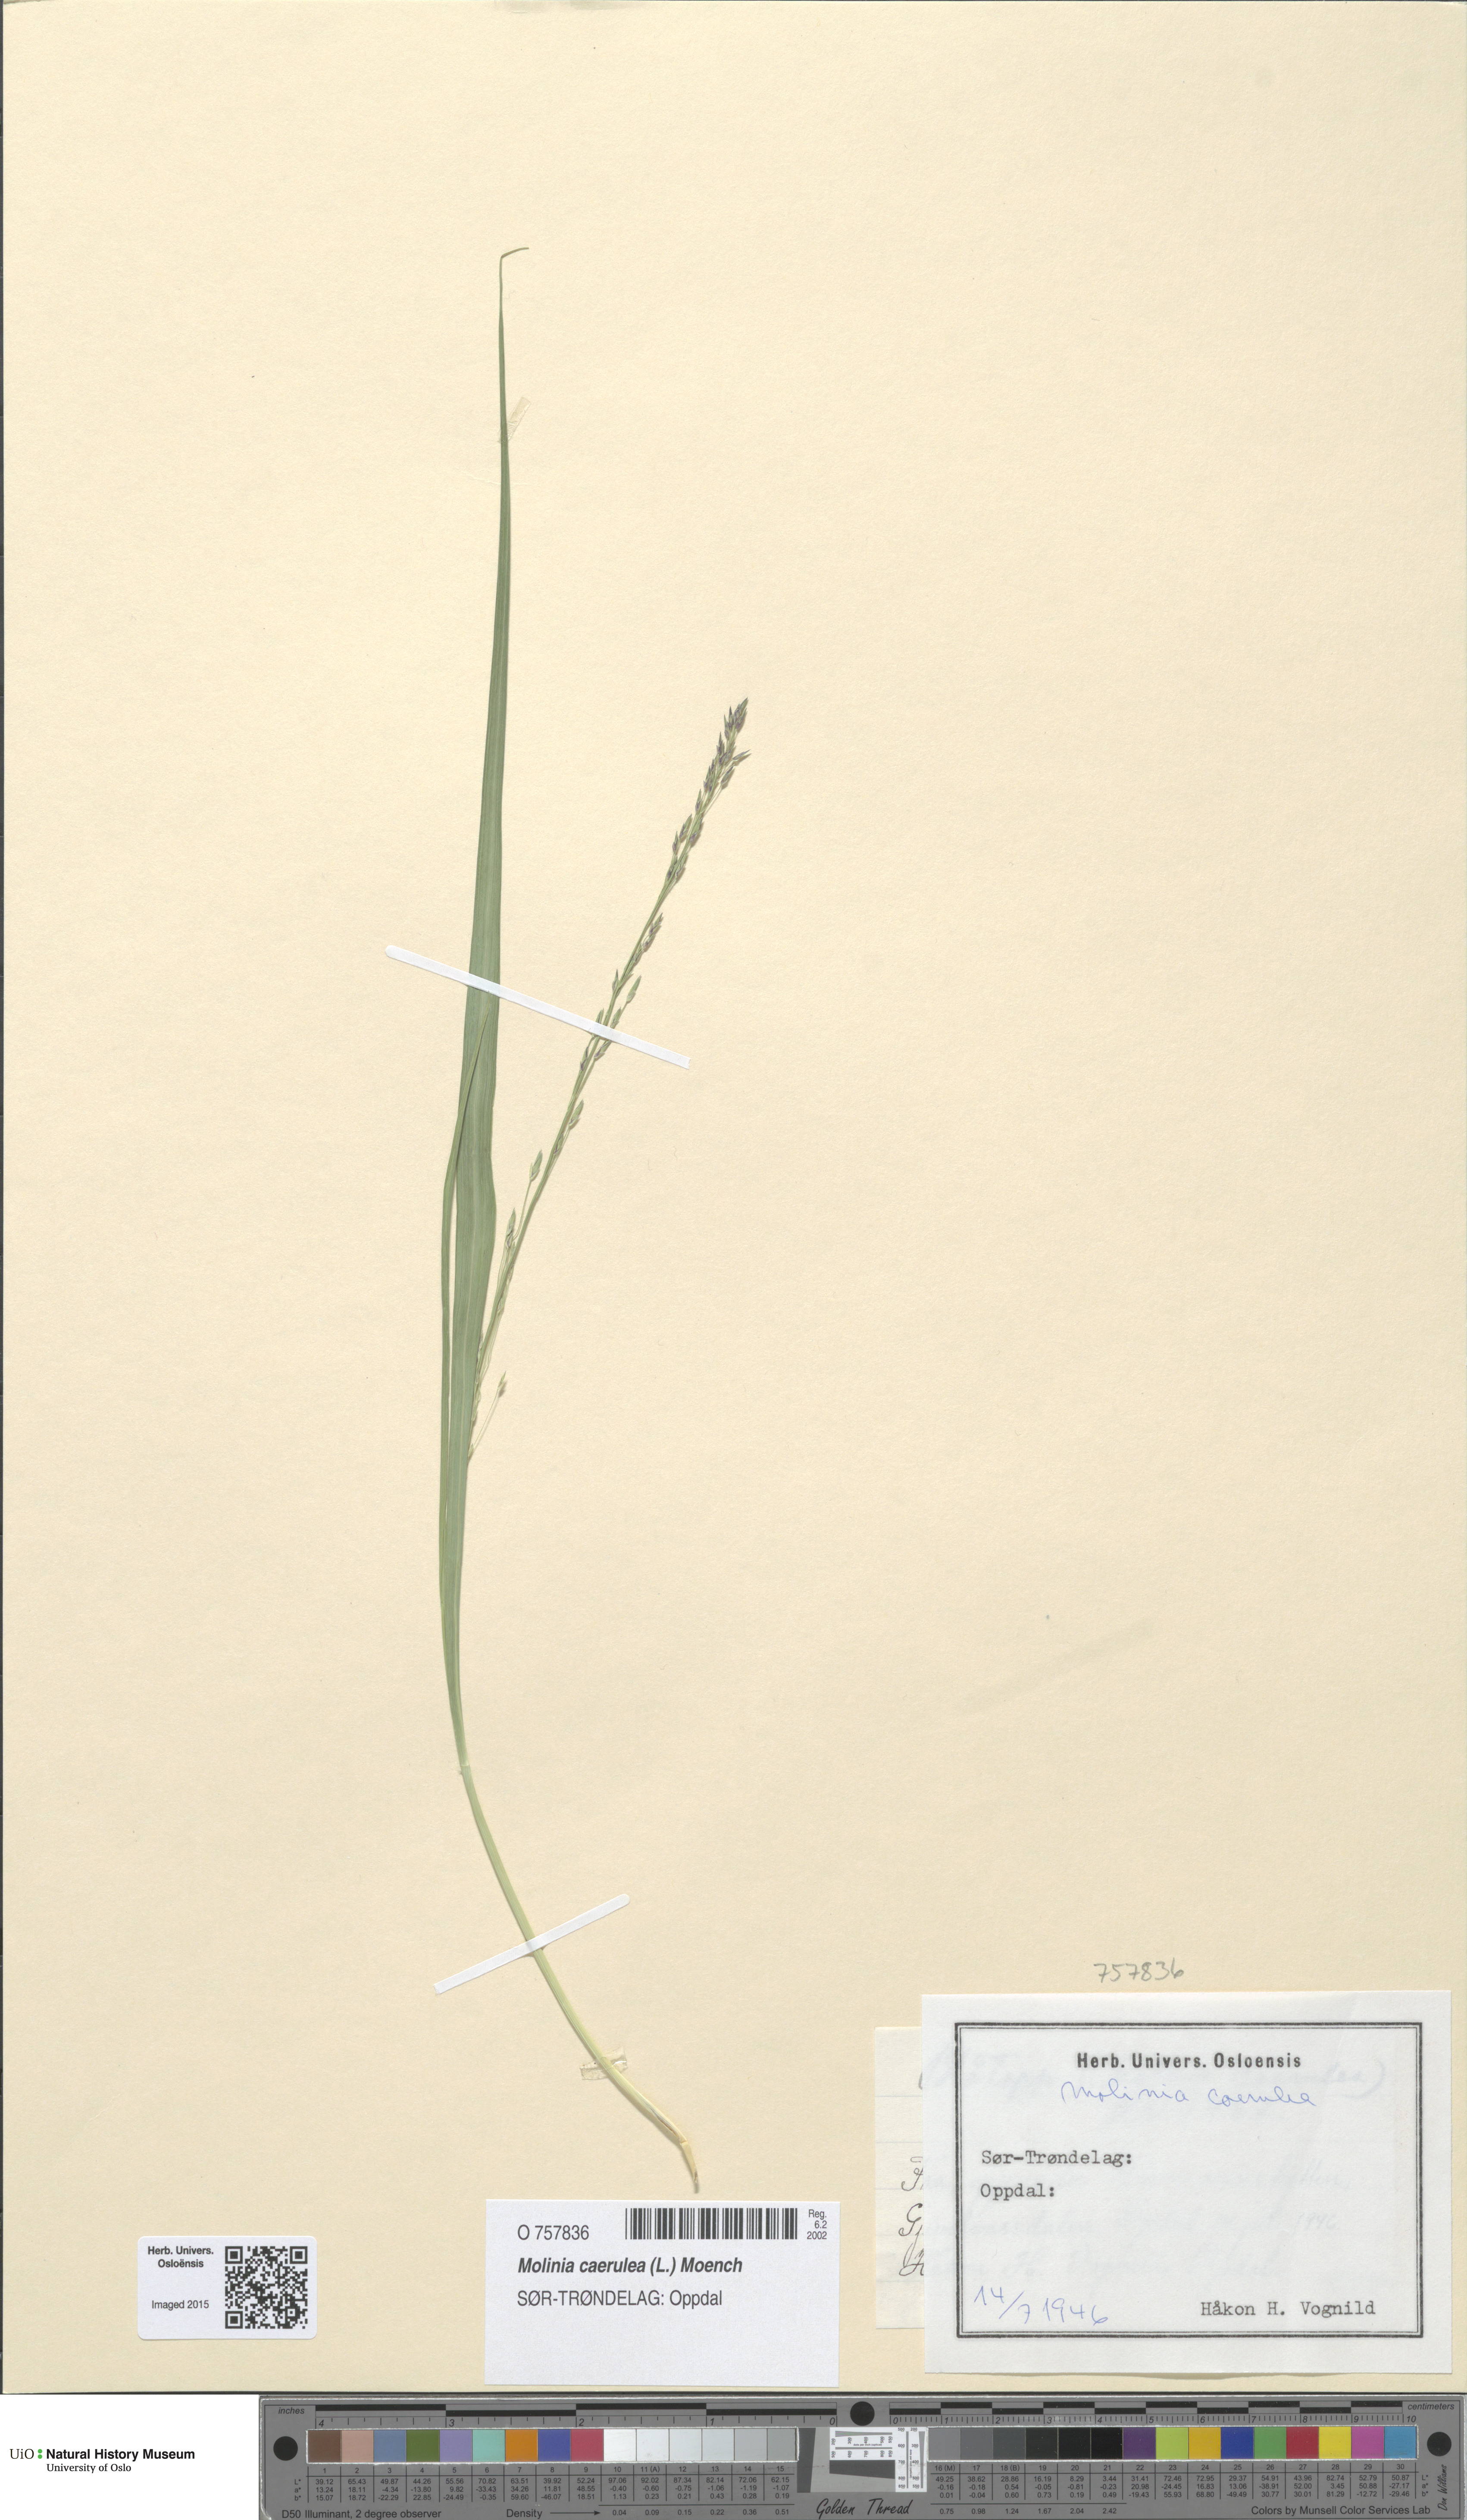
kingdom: Plantae
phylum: Tracheophyta
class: Liliopsida
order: Poales
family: Poaceae
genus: Molinia
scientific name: Molinia caerulea
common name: Purple moor-grass
